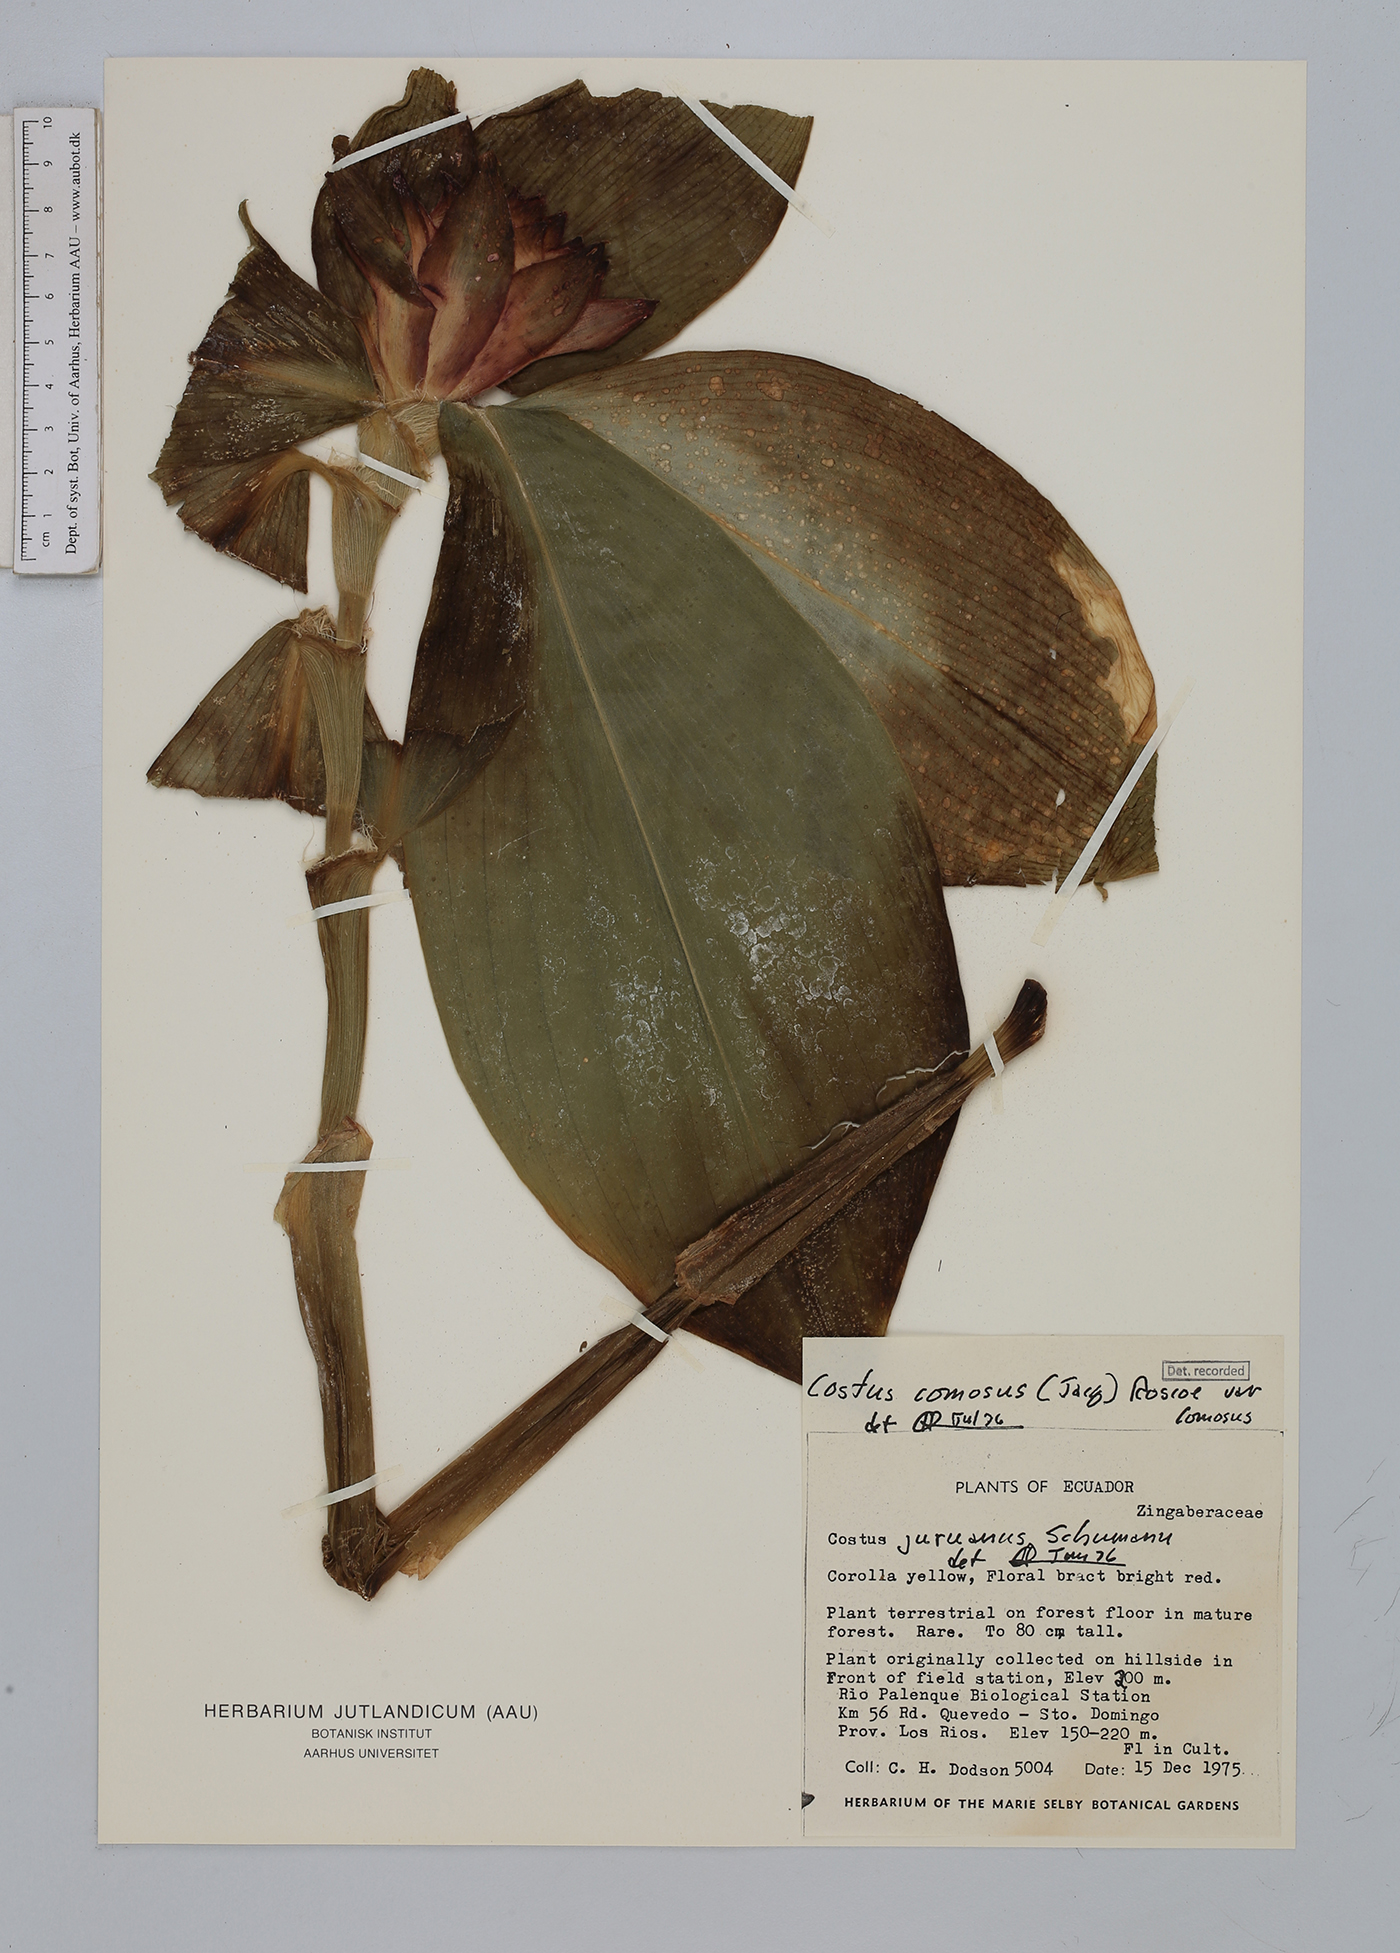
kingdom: Plantae
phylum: Tracheophyta
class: Liliopsida
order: Zingiberales
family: Costaceae
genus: Costus
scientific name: Costus osae
